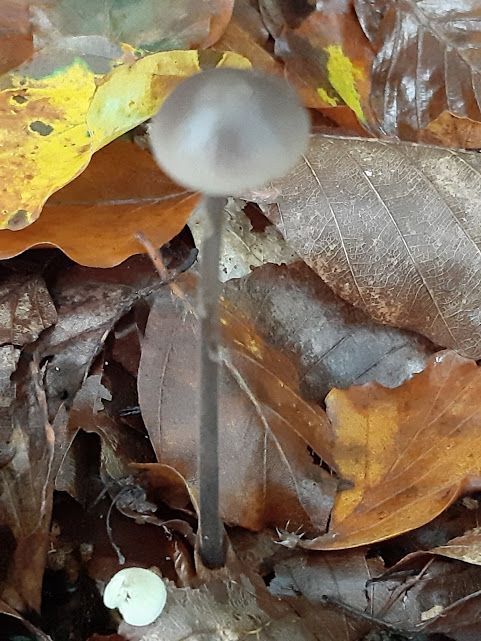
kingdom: Fungi
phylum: Basidiomycota
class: Agaricomycetes
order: Agaricales
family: Omphalotaceae
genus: Mycetinis
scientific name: Mycetinis alliaceus
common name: stor løghat
